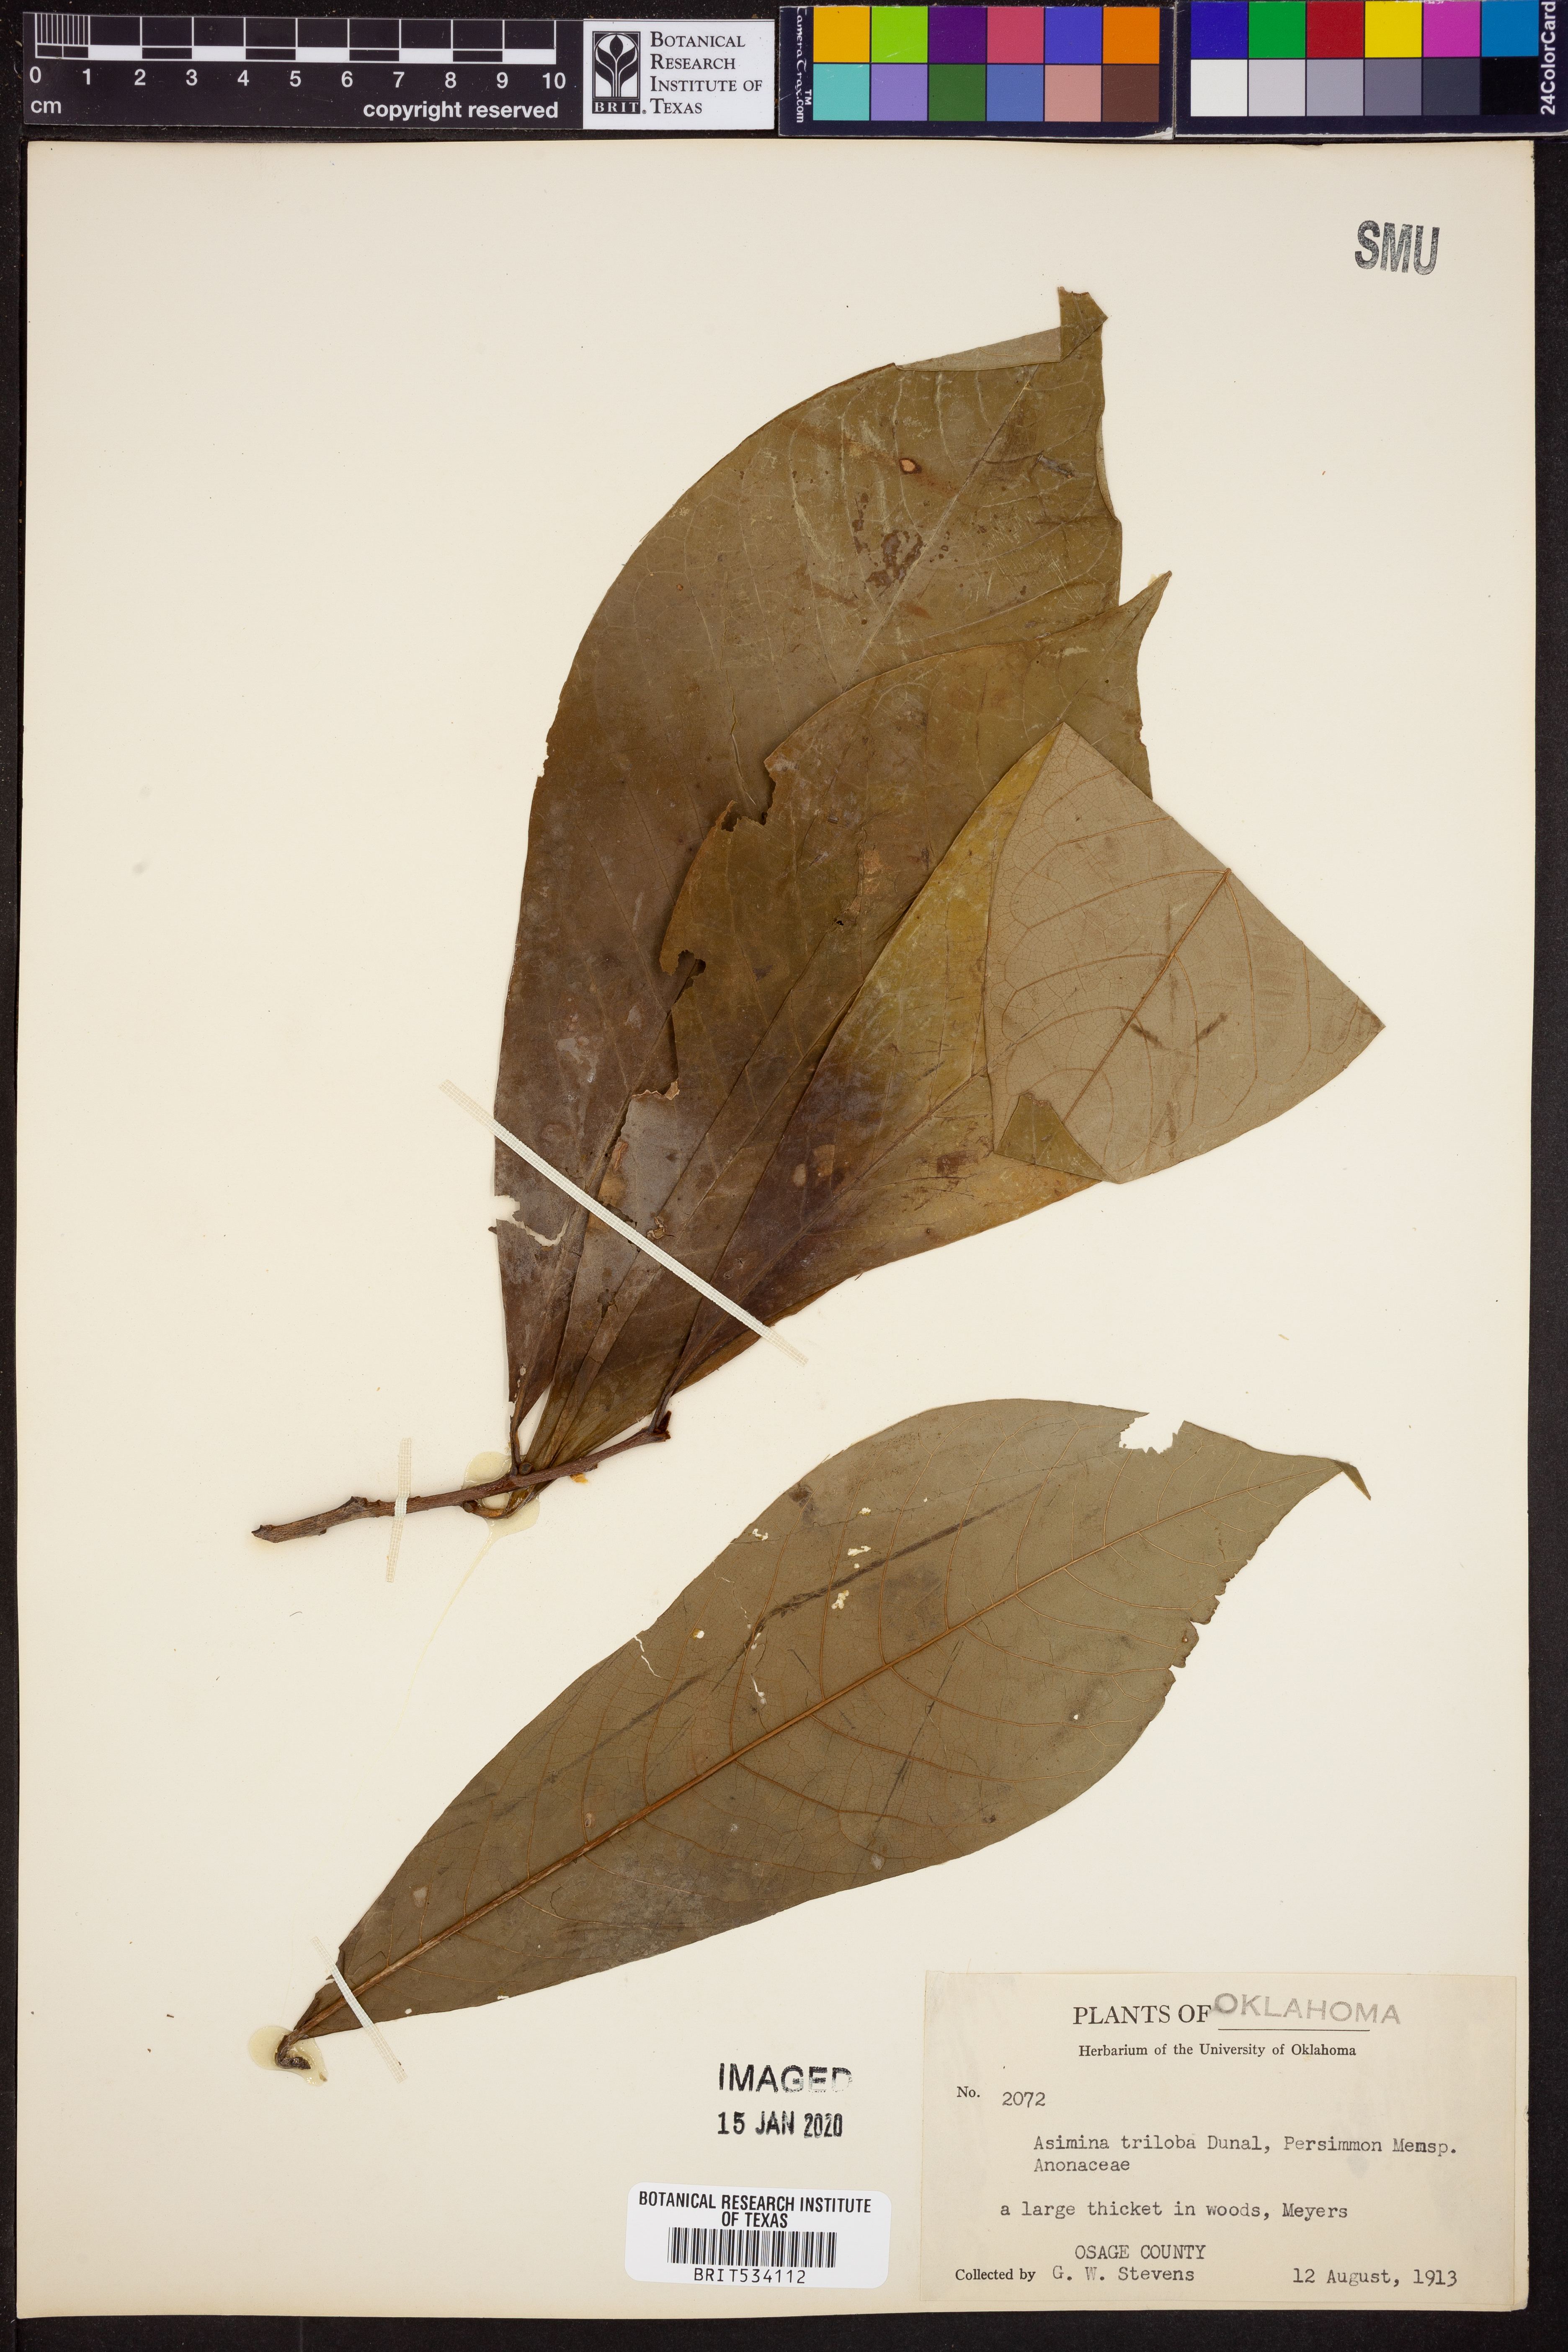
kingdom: Plantae
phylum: Tracheophyta
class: Magnoliopsida
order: Magnoliales
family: Annonaceae
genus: Asimina
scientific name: Asimina triloba
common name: Dog-banana
